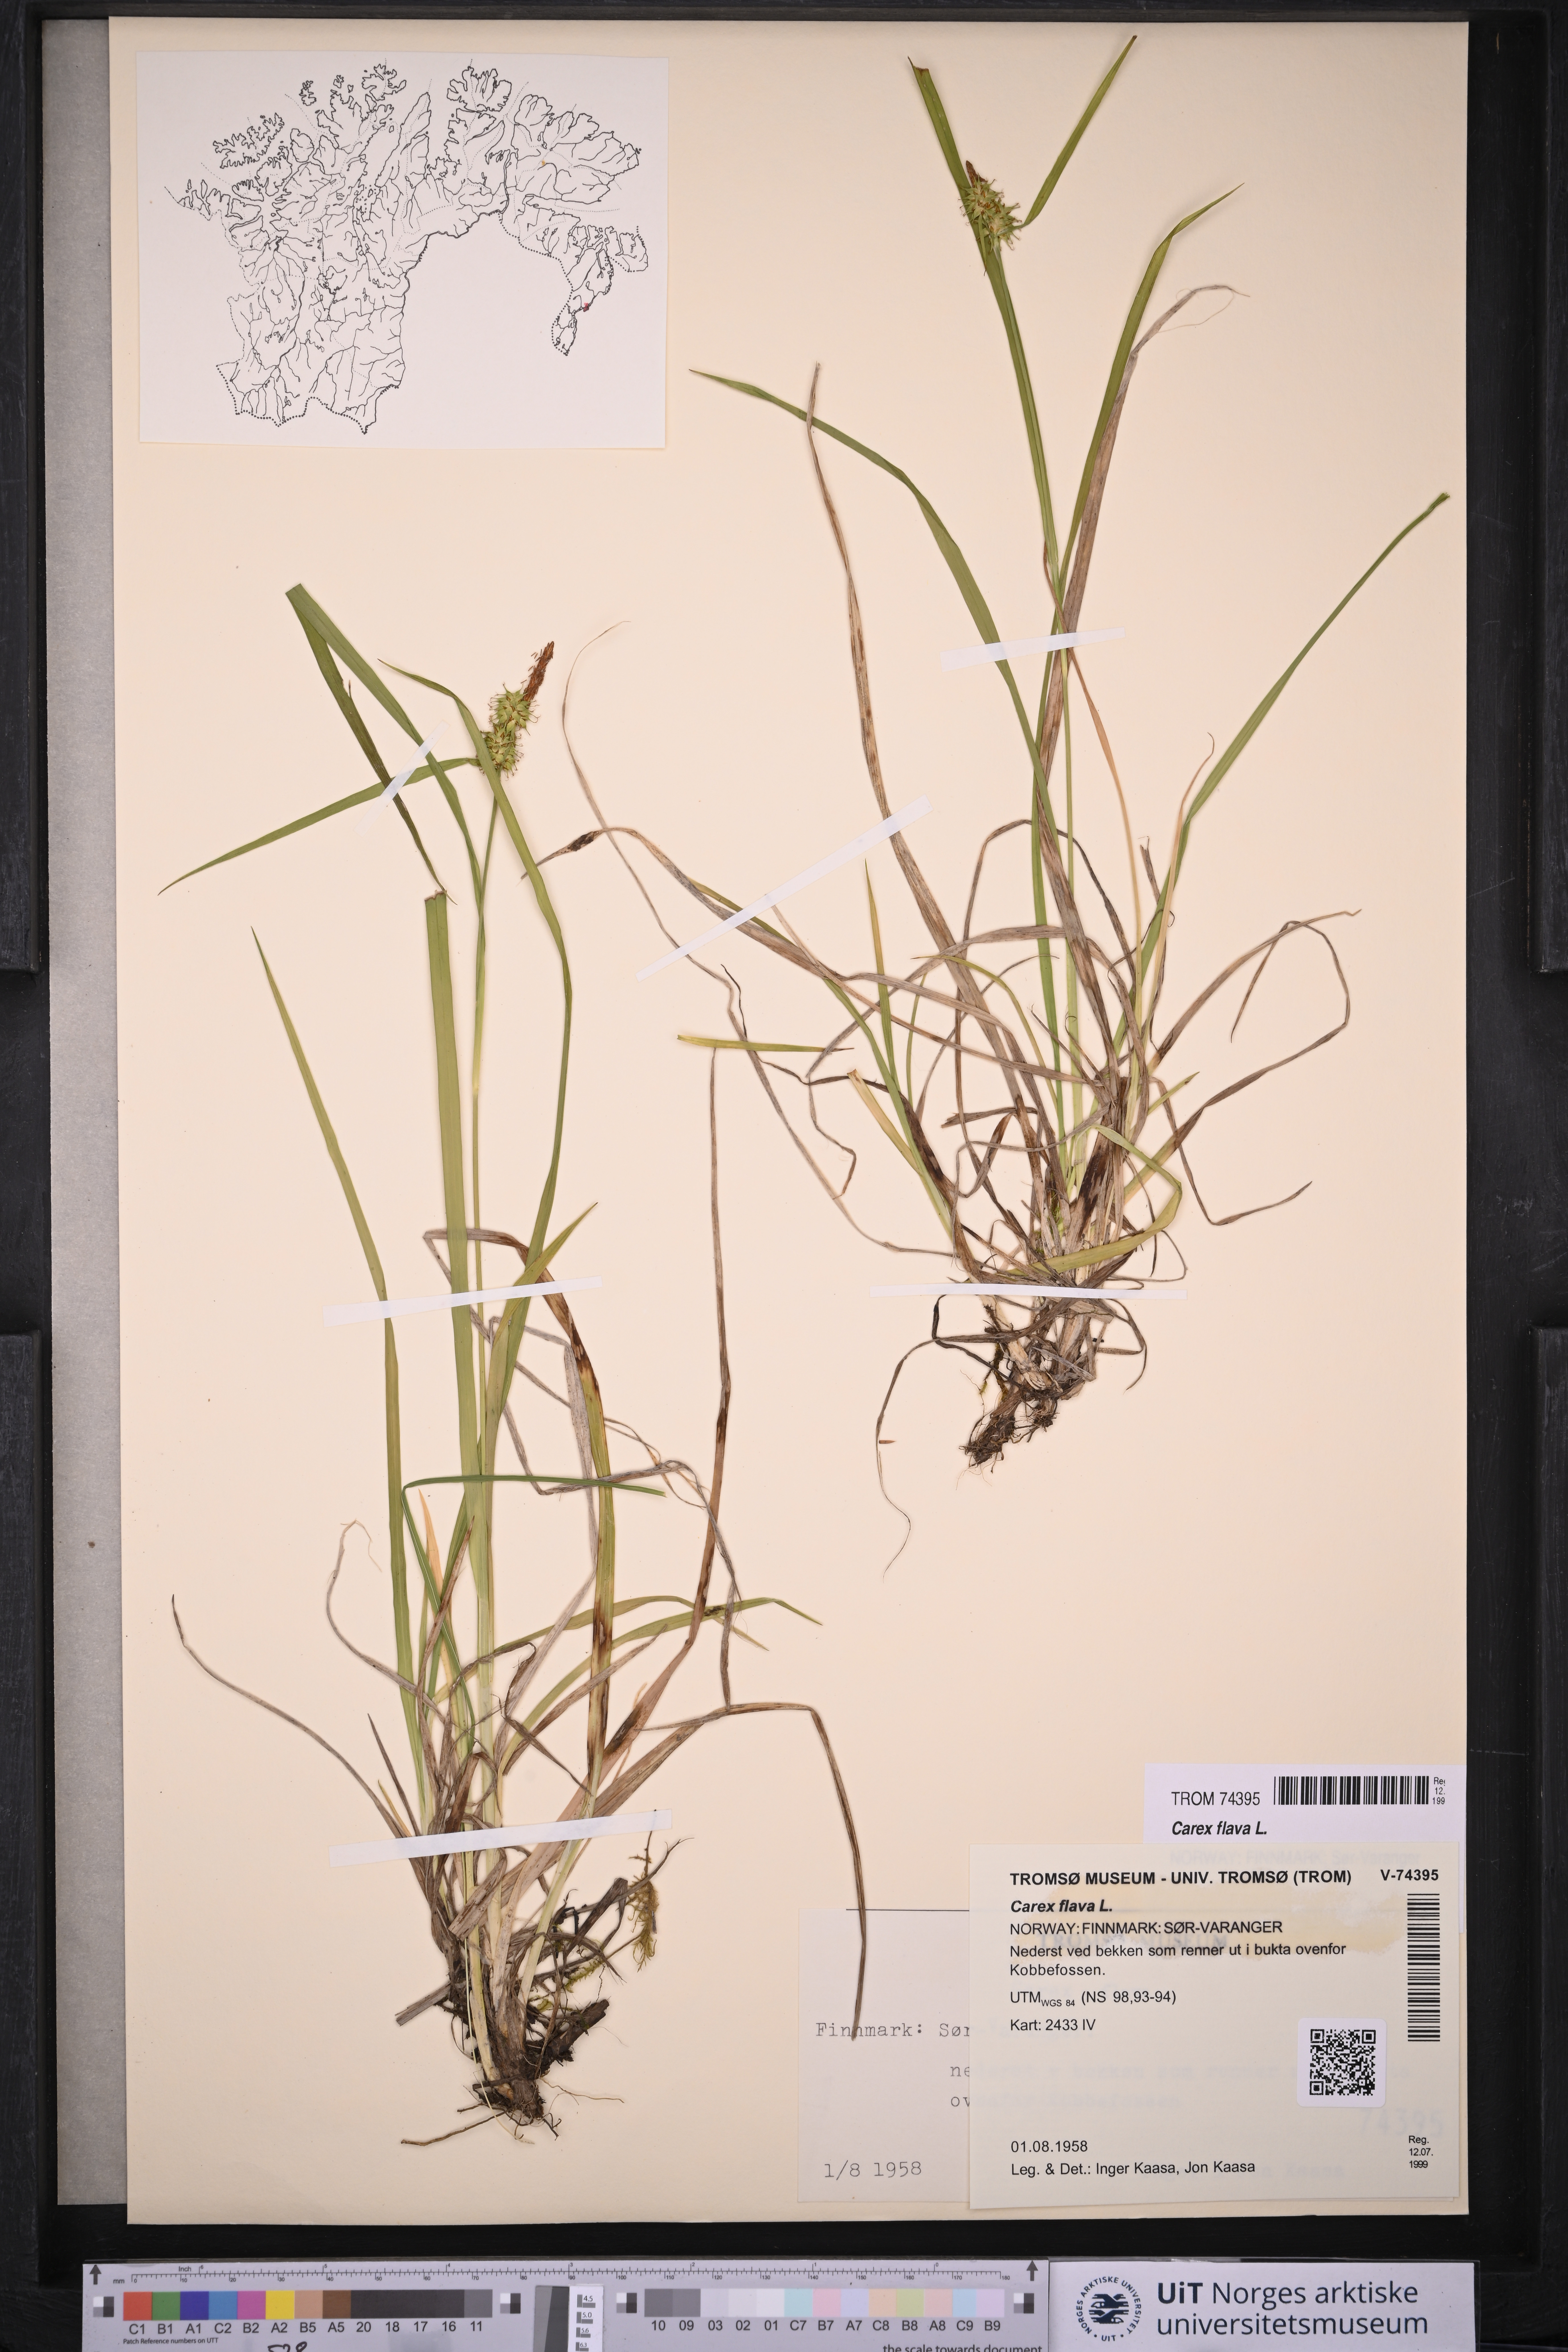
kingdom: Plantae
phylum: Tracheophyta
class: Liliopsida
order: Poales
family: Cyperaceae
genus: Carex
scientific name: Carex flava
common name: Large yellow-sedge
